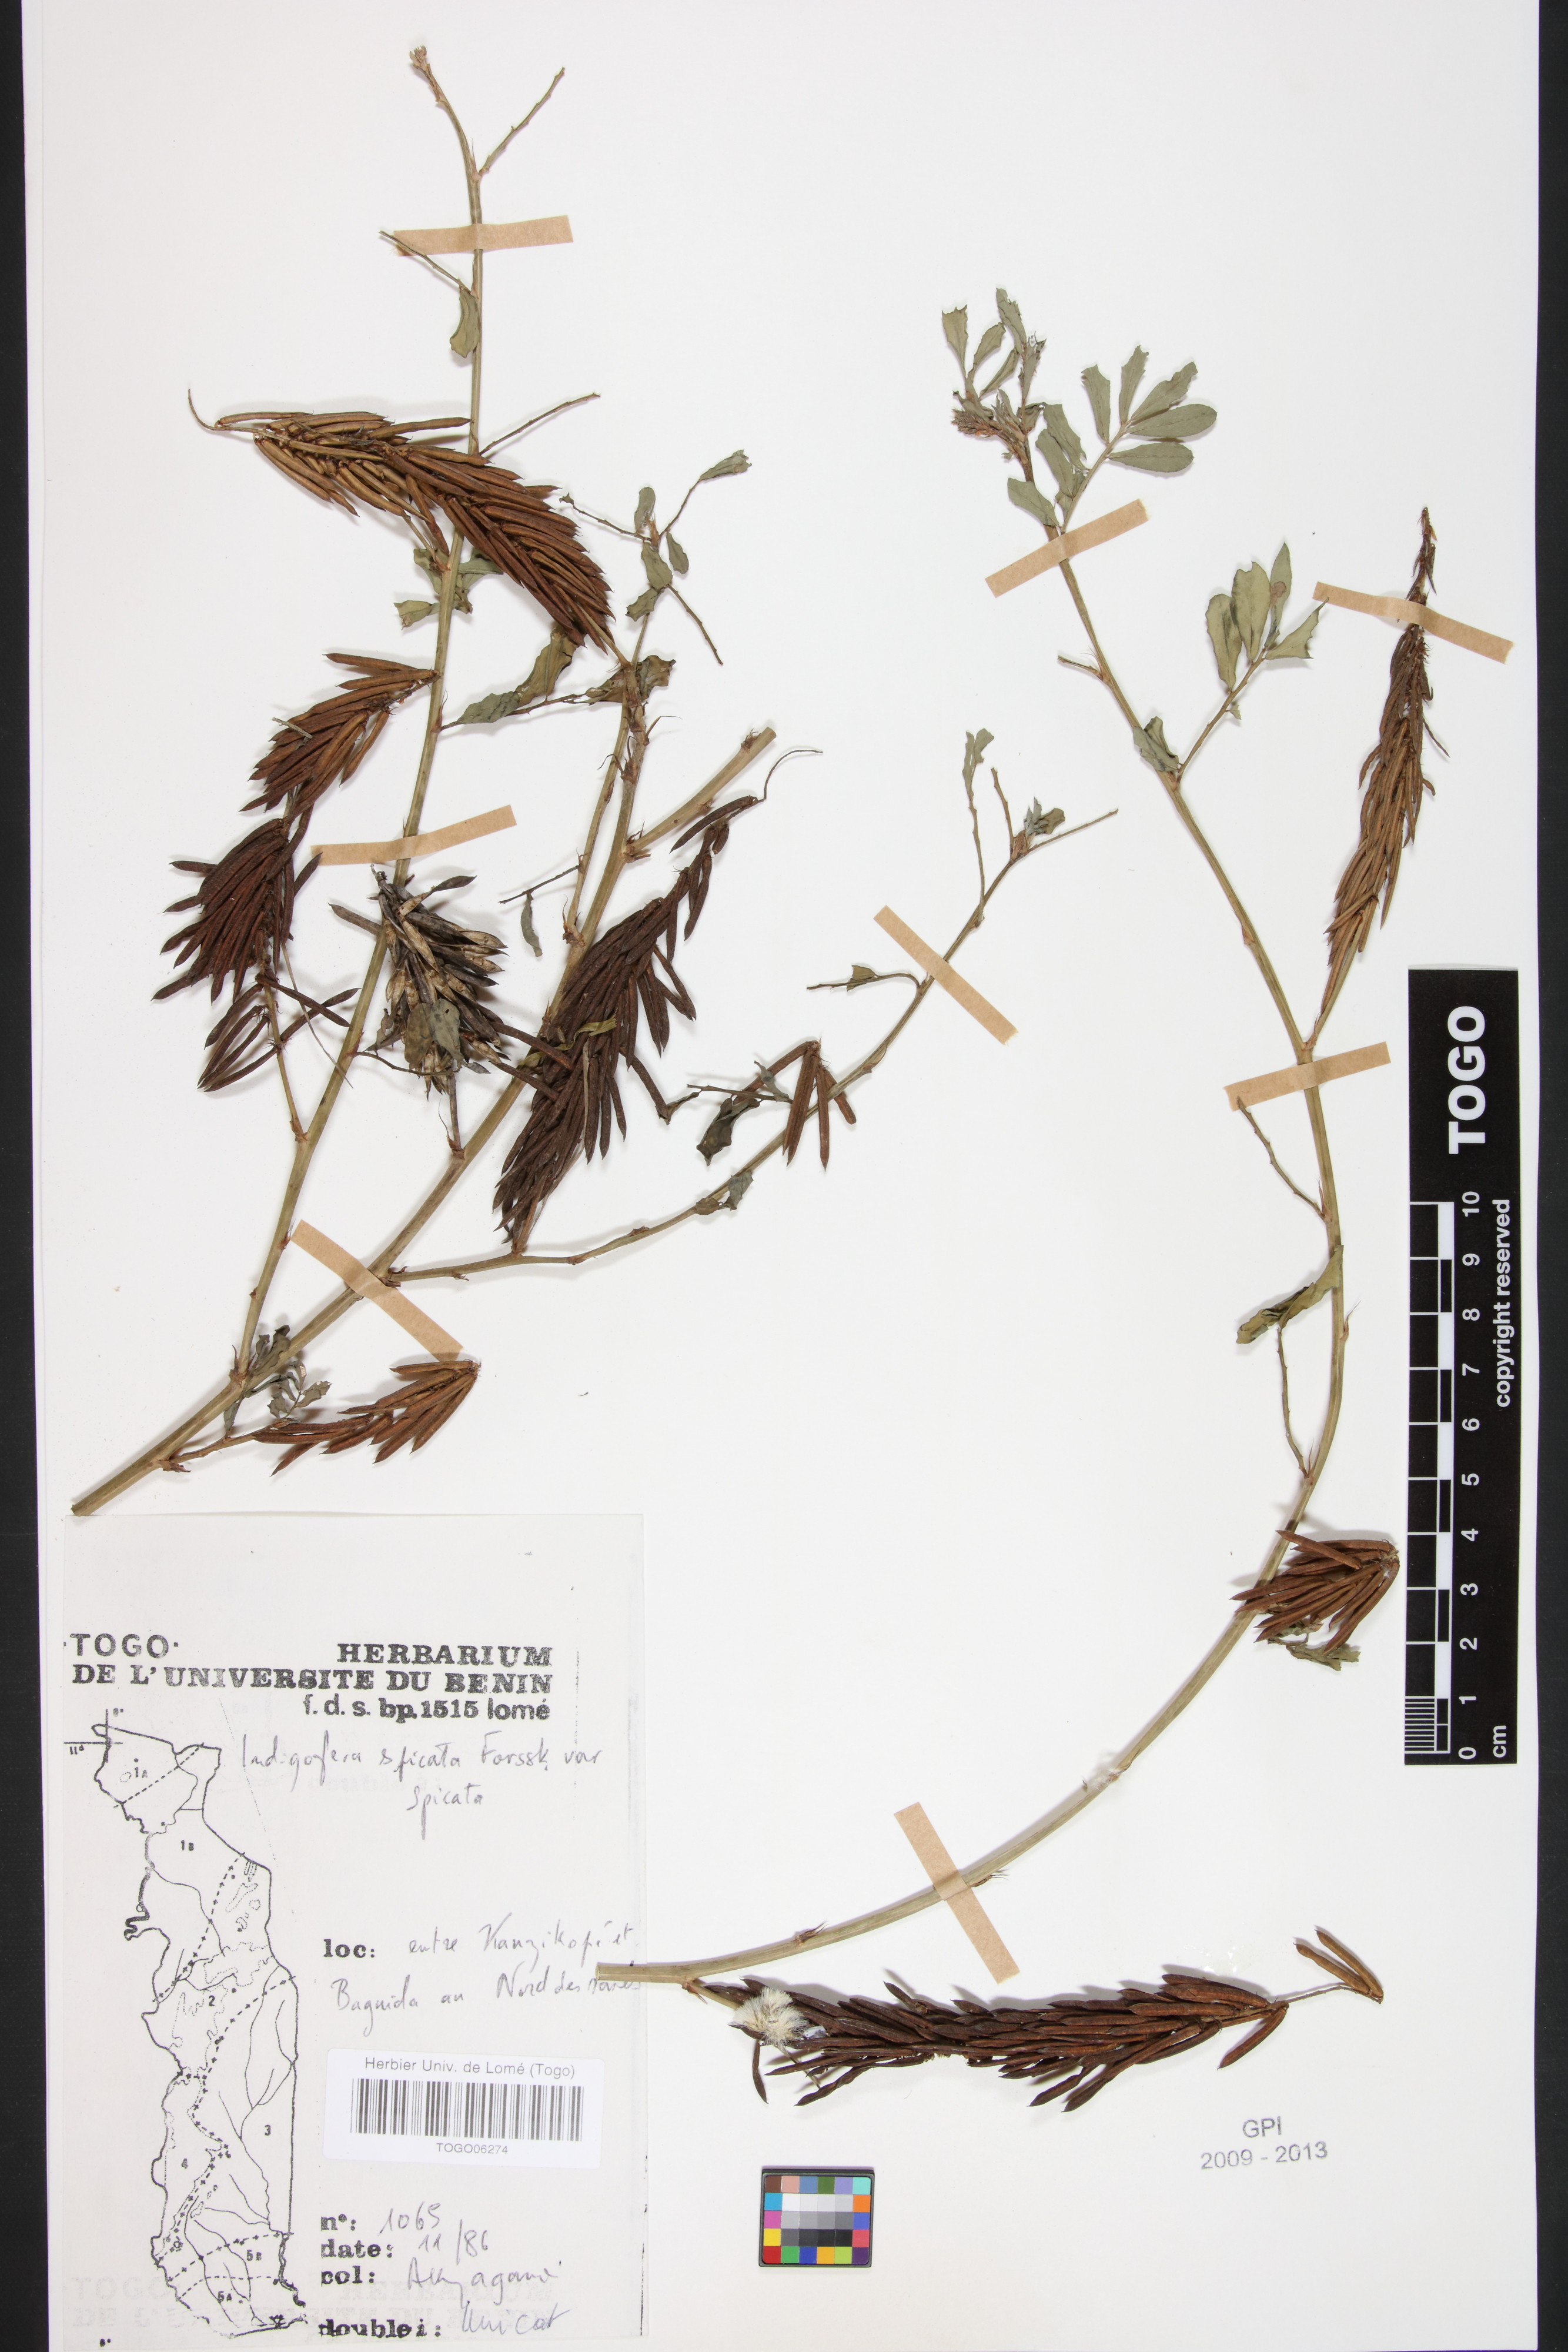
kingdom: Plantae
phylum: Tracheophyta
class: Magnoliopsida
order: Fabales
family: Fabaceae
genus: Indigofera
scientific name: Indigofera spicata
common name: Creeping indigo
